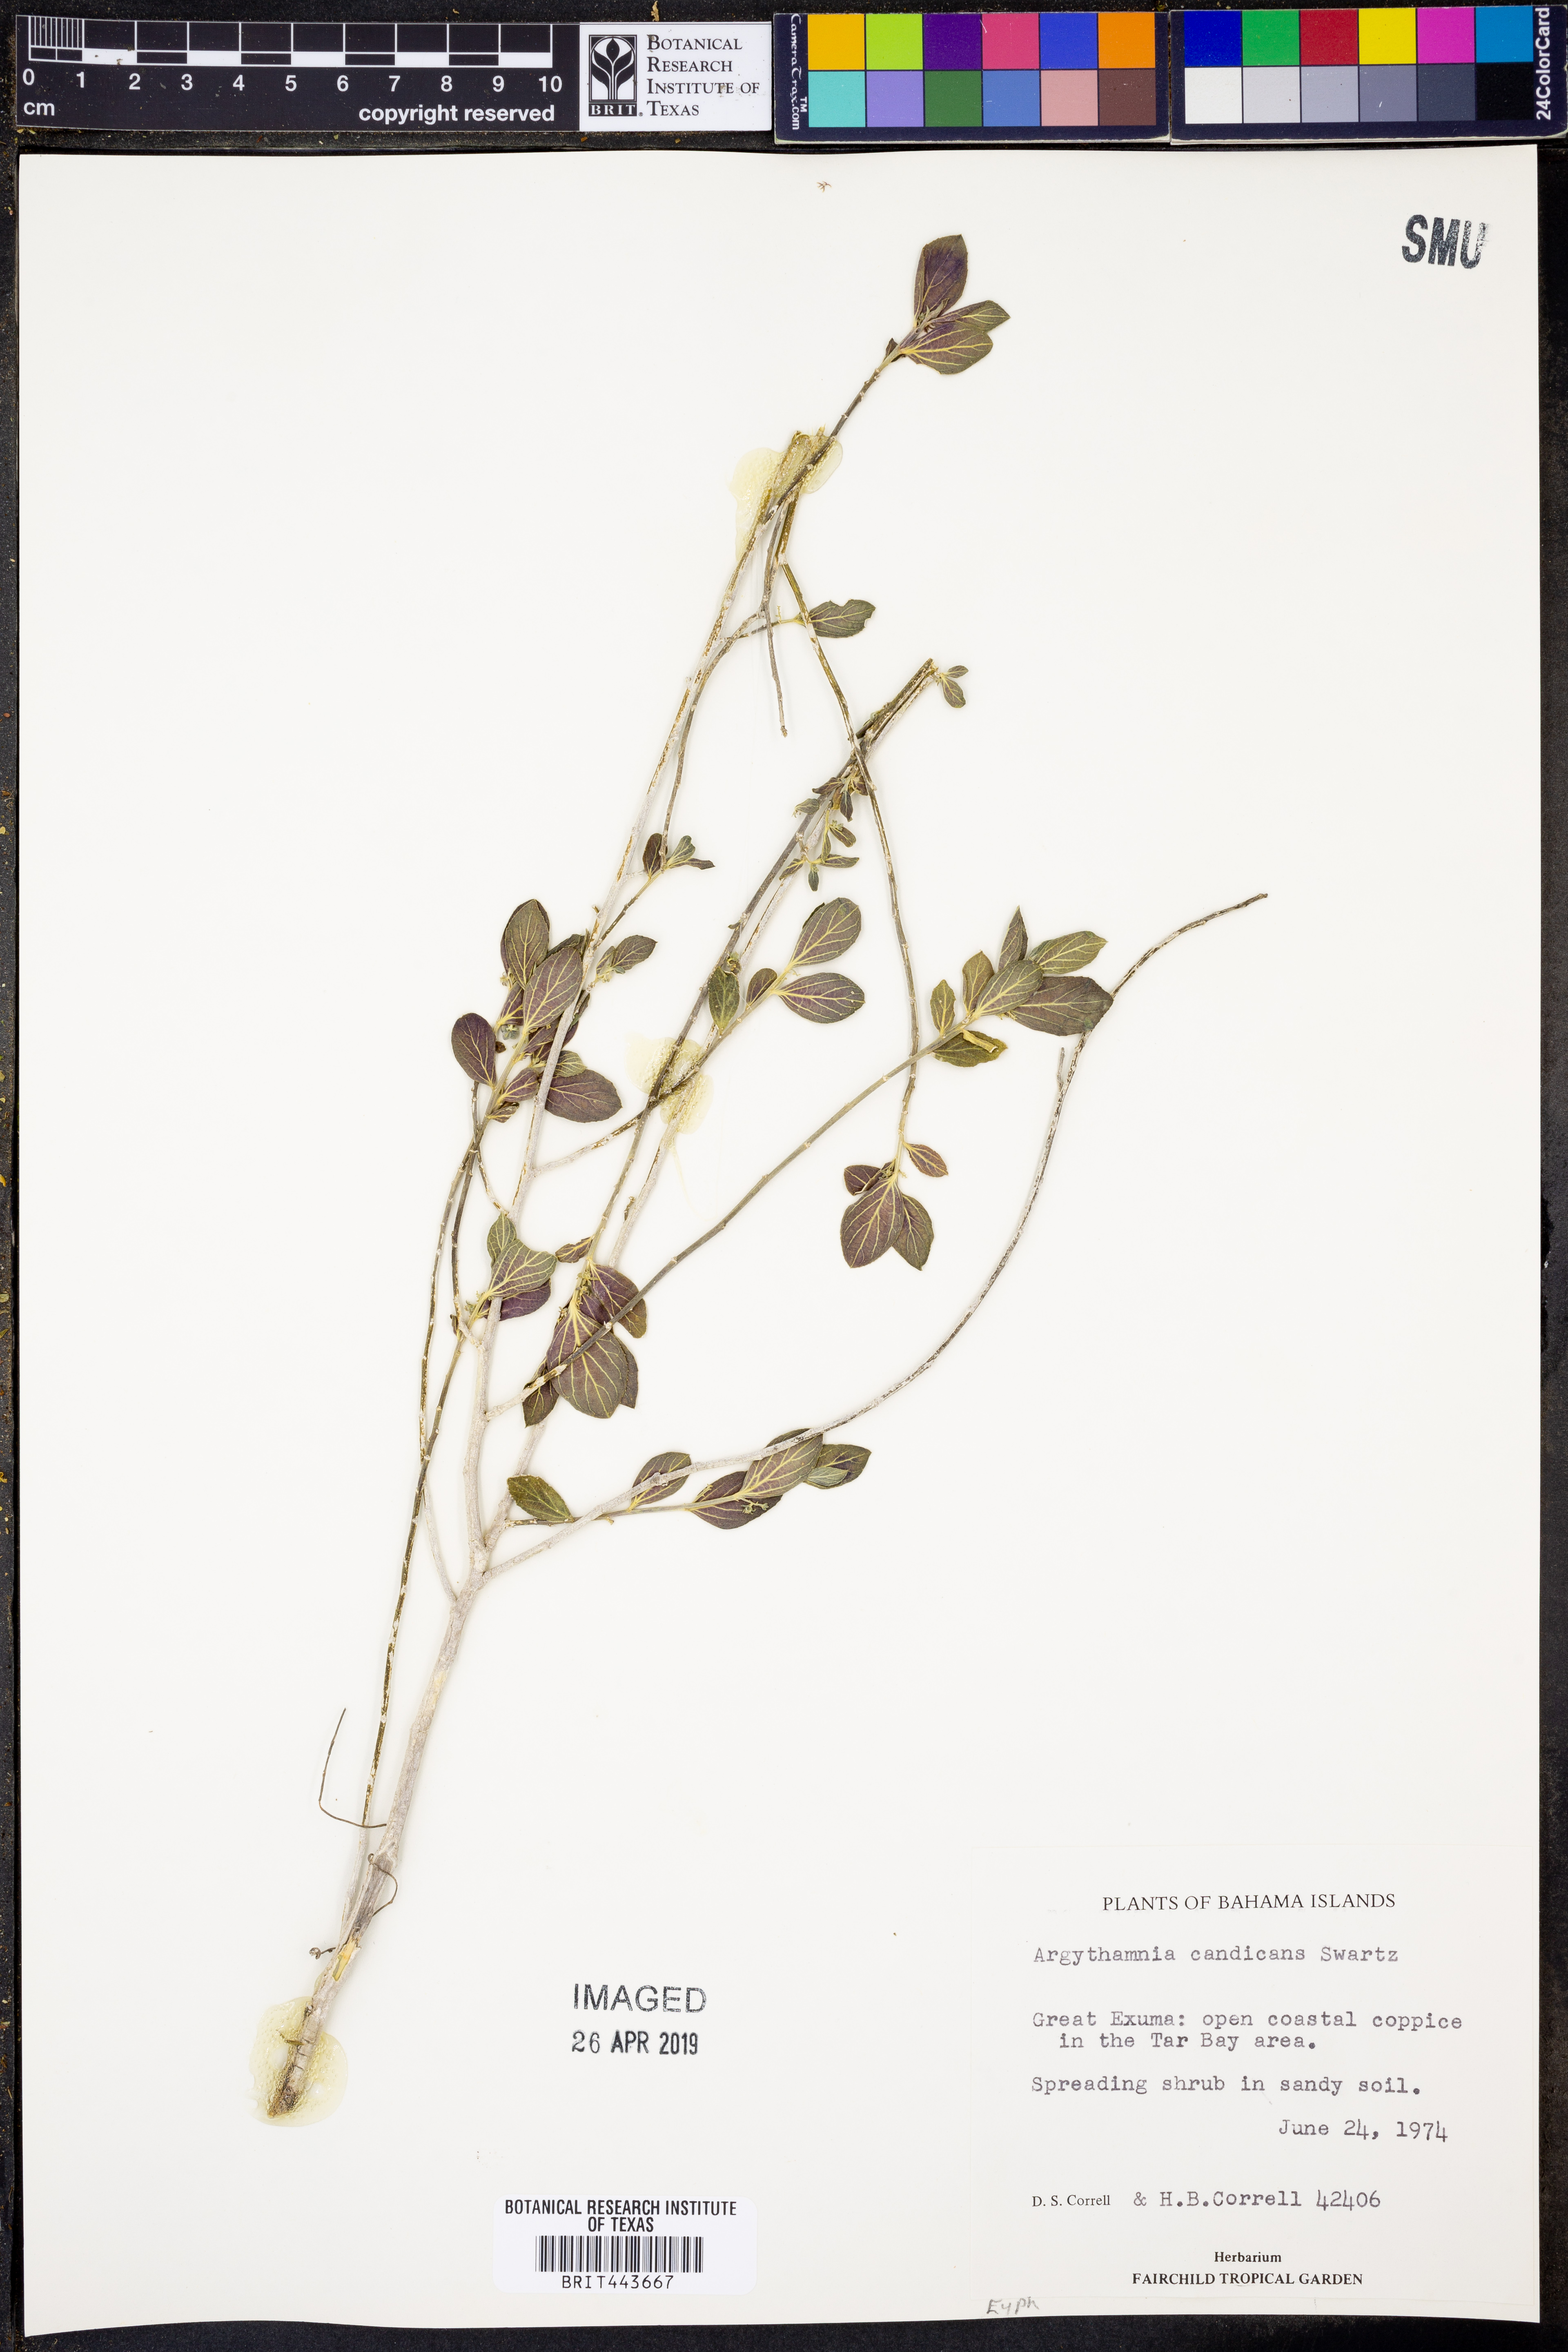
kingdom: Plantae
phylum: Tracheophyta
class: Magnoliopsida
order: Malpighiales
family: Euphorbiaceae
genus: Argythamnia
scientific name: Argythamnia candicans
